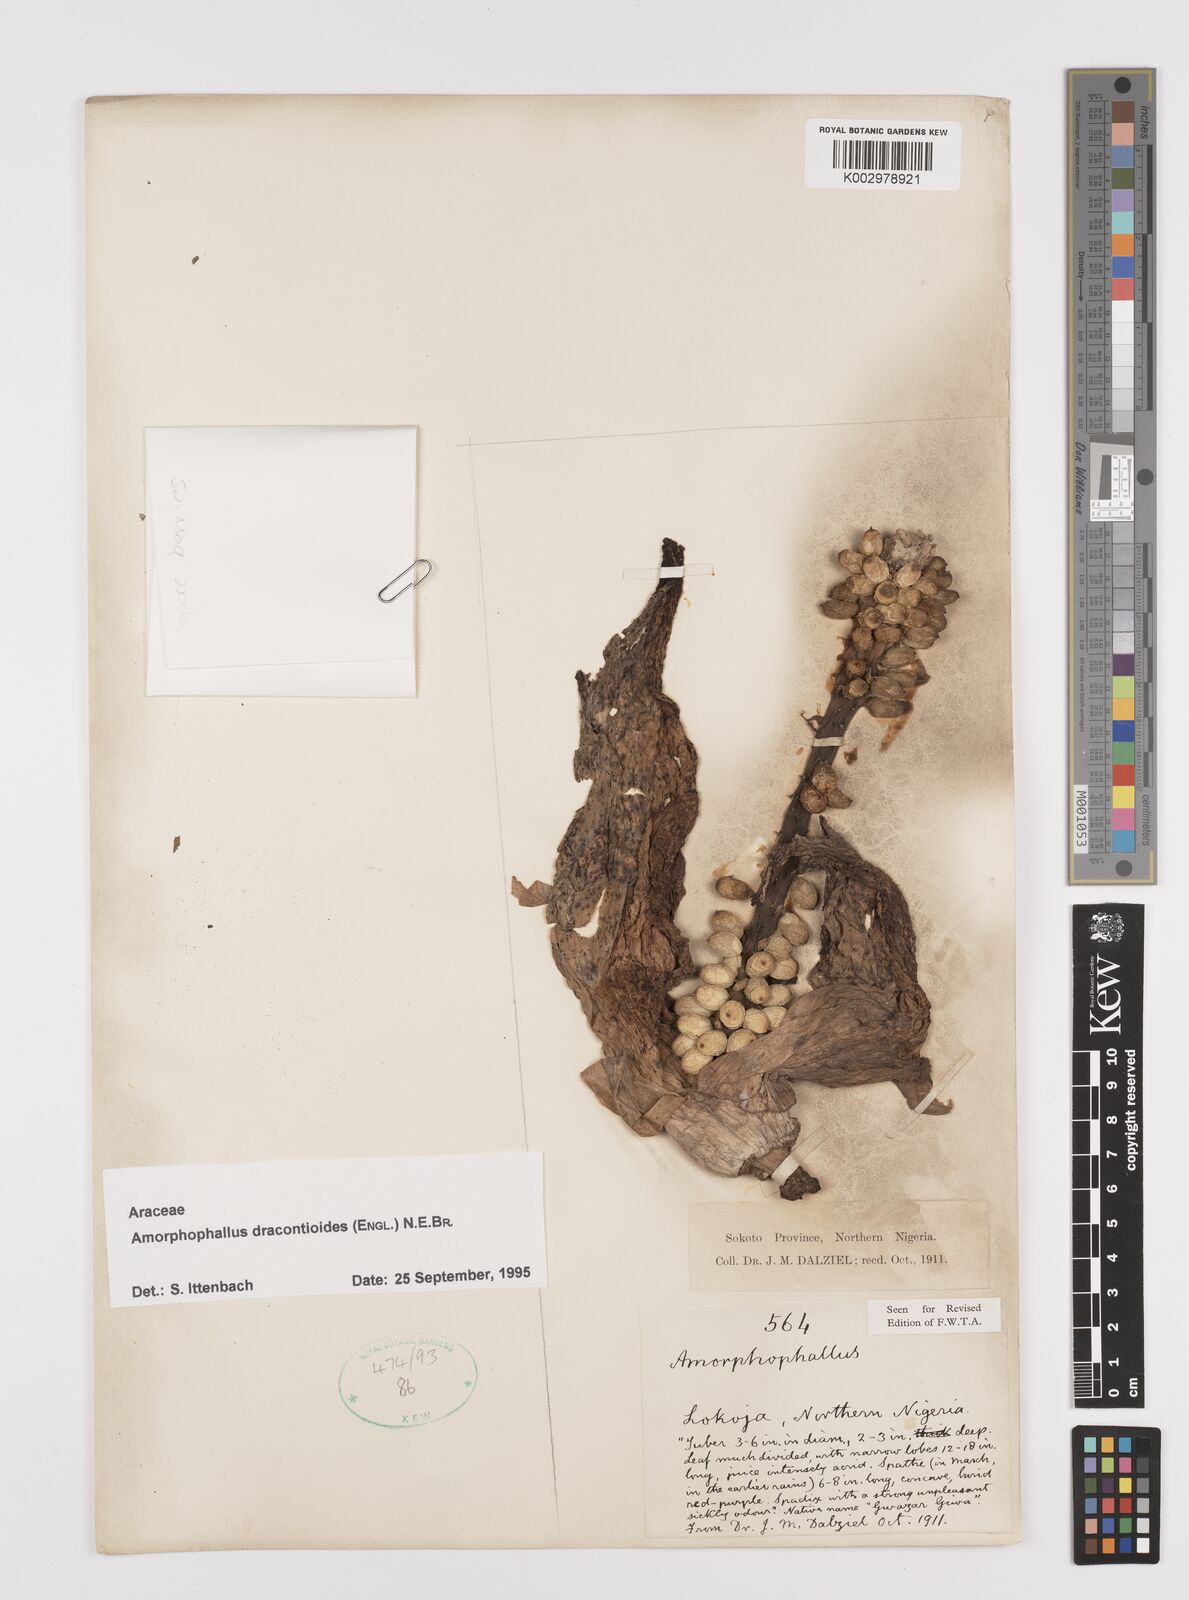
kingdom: Plantae
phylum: Tracheophyta
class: Liliopsida
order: Alismatales
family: Araceae
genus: Amorphophallus
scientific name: Amorphophallus dracontioides
